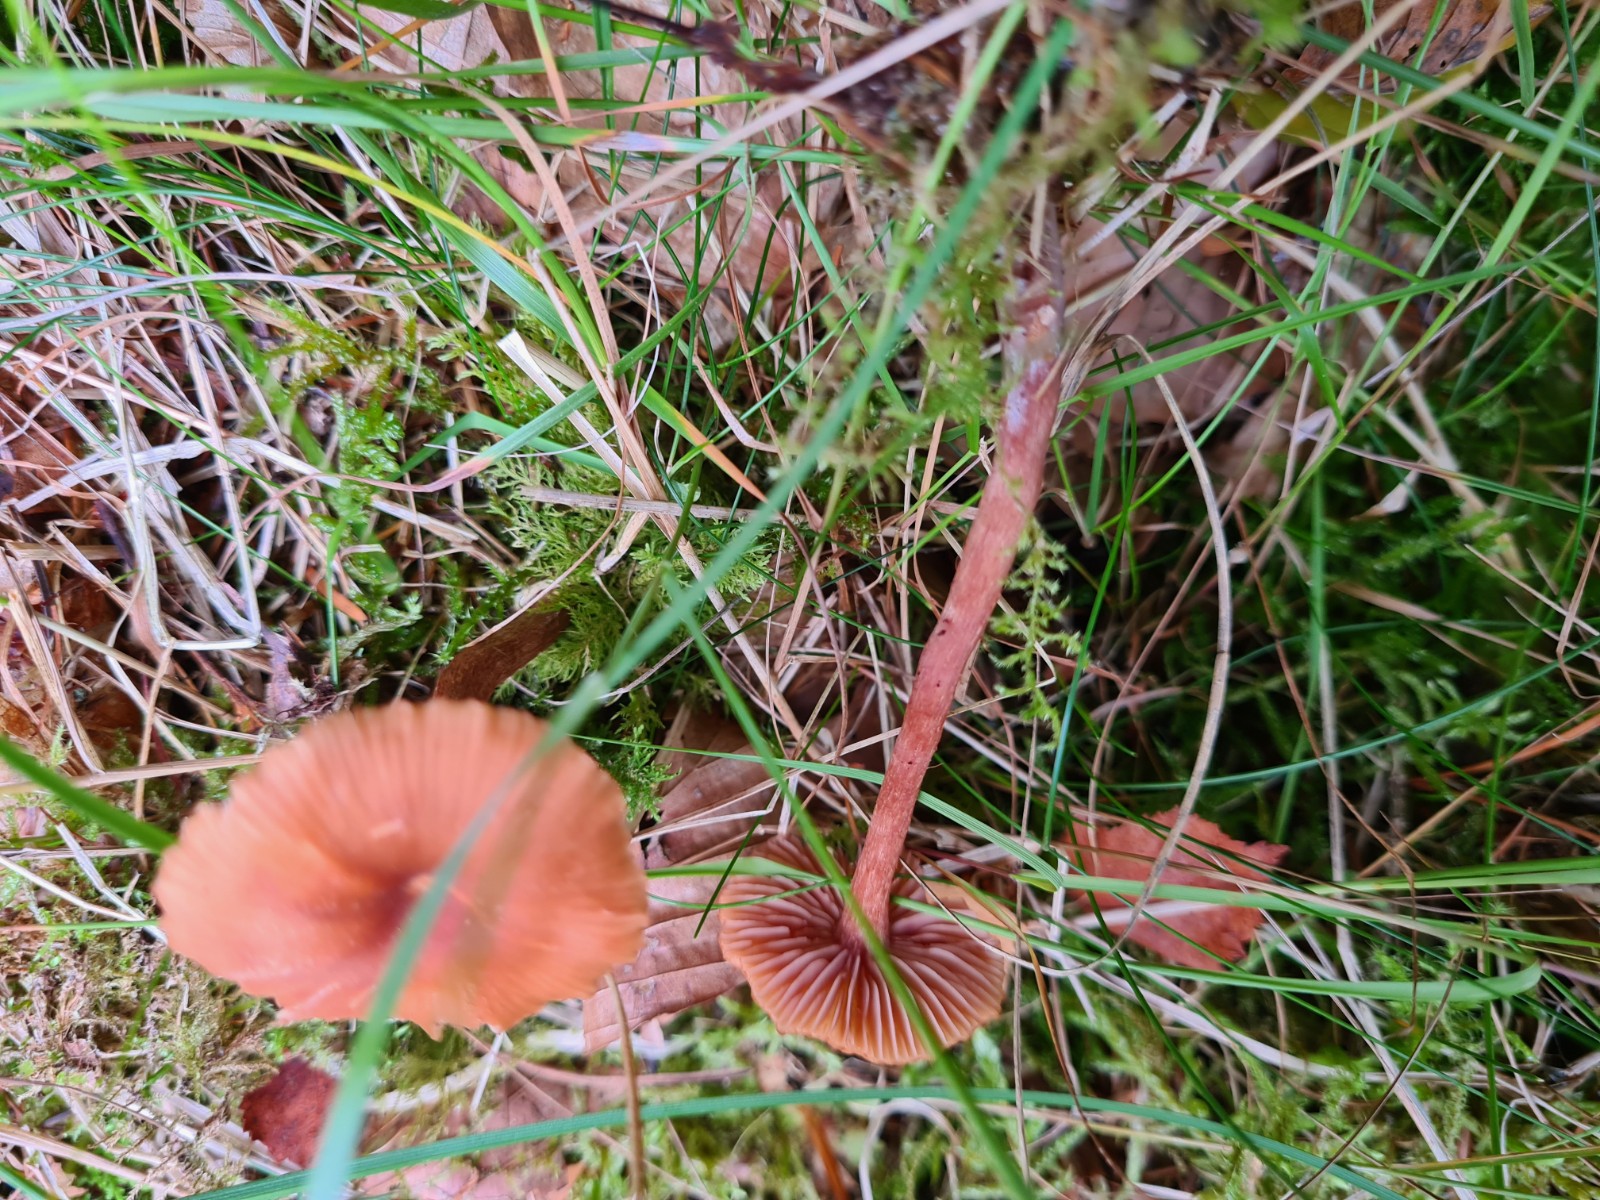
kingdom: Fungi
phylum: Basidiomycota
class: Agaricomycetes
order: Agaricales
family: Hydnangiaceae
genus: Laccaria
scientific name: Laccaria laccata
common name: rød ametysthat
